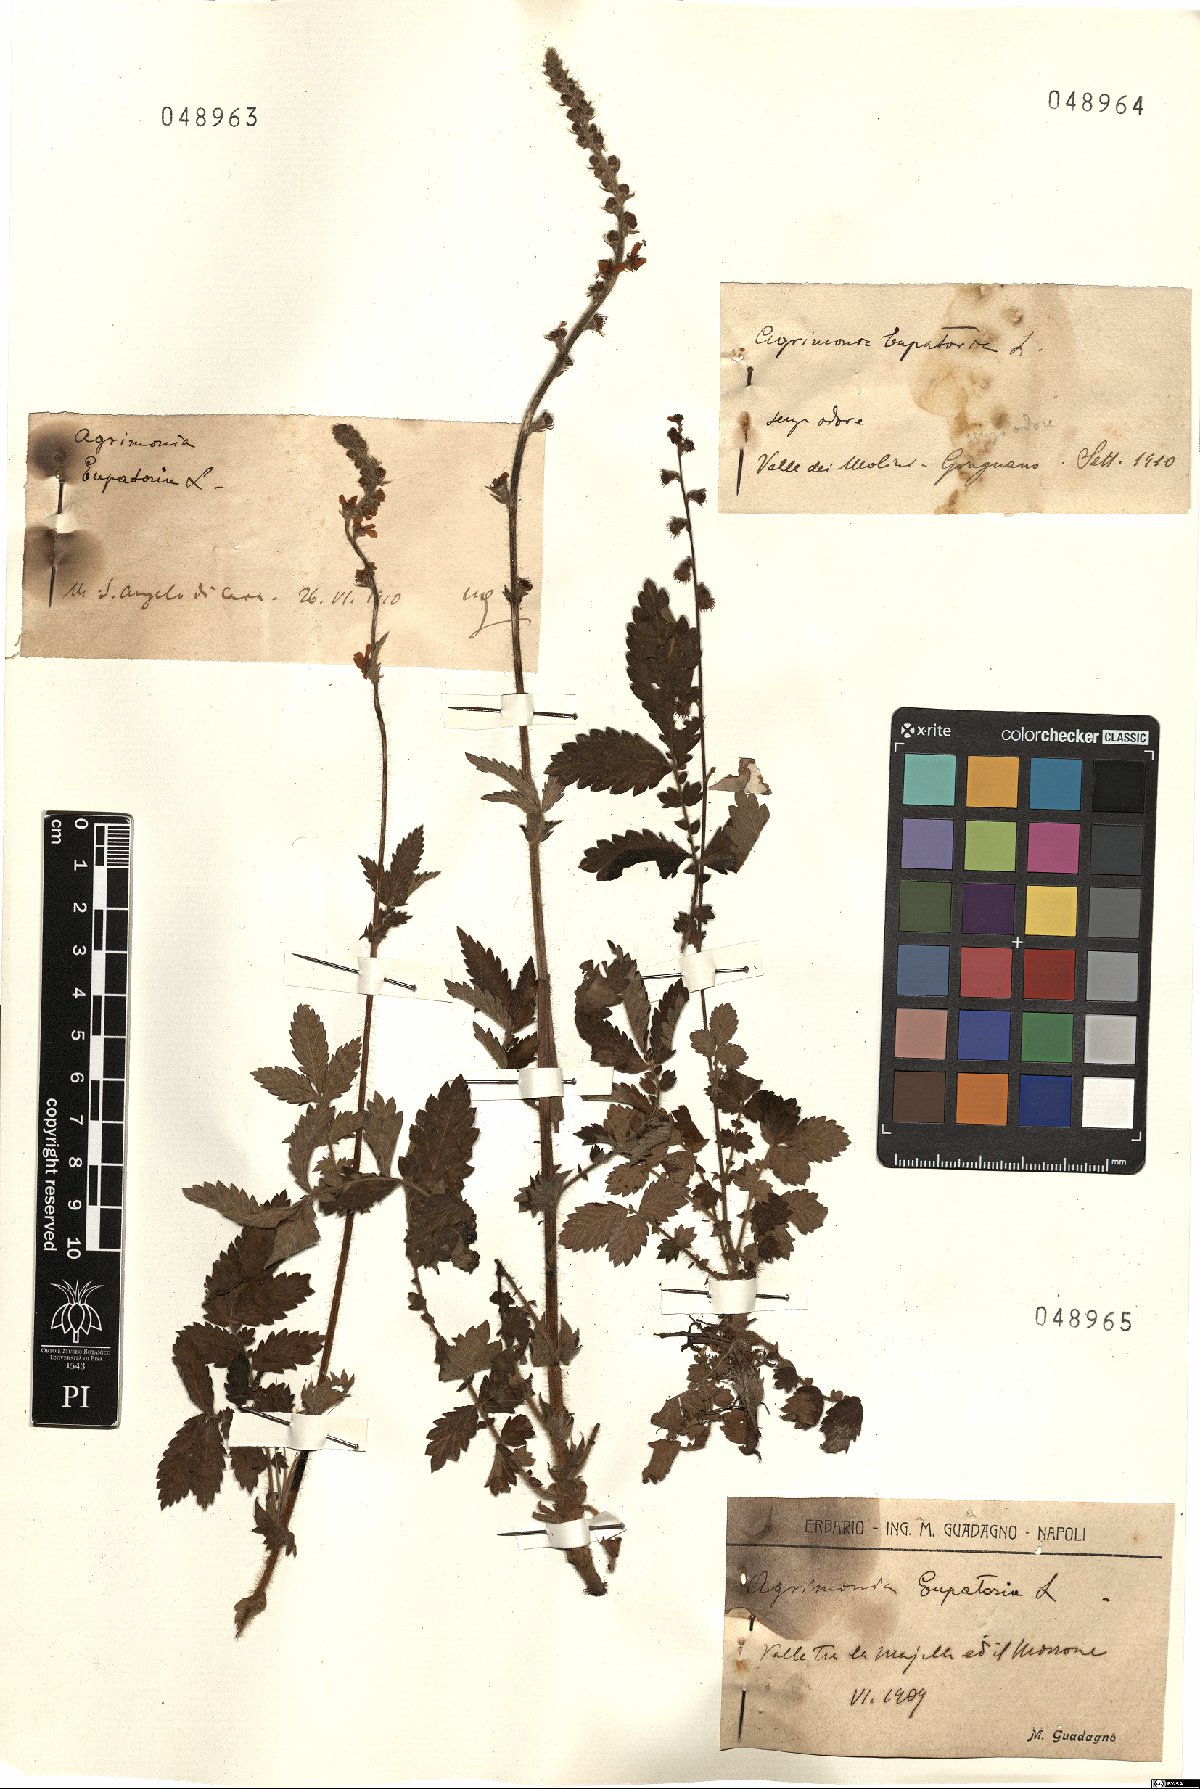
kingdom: Plantae
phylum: Tracheophyta
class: Magnoliopsida
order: Rosales
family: Rosaceae
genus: Agrimonia
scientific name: Agrimonia eupatoria
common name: Agrimony
